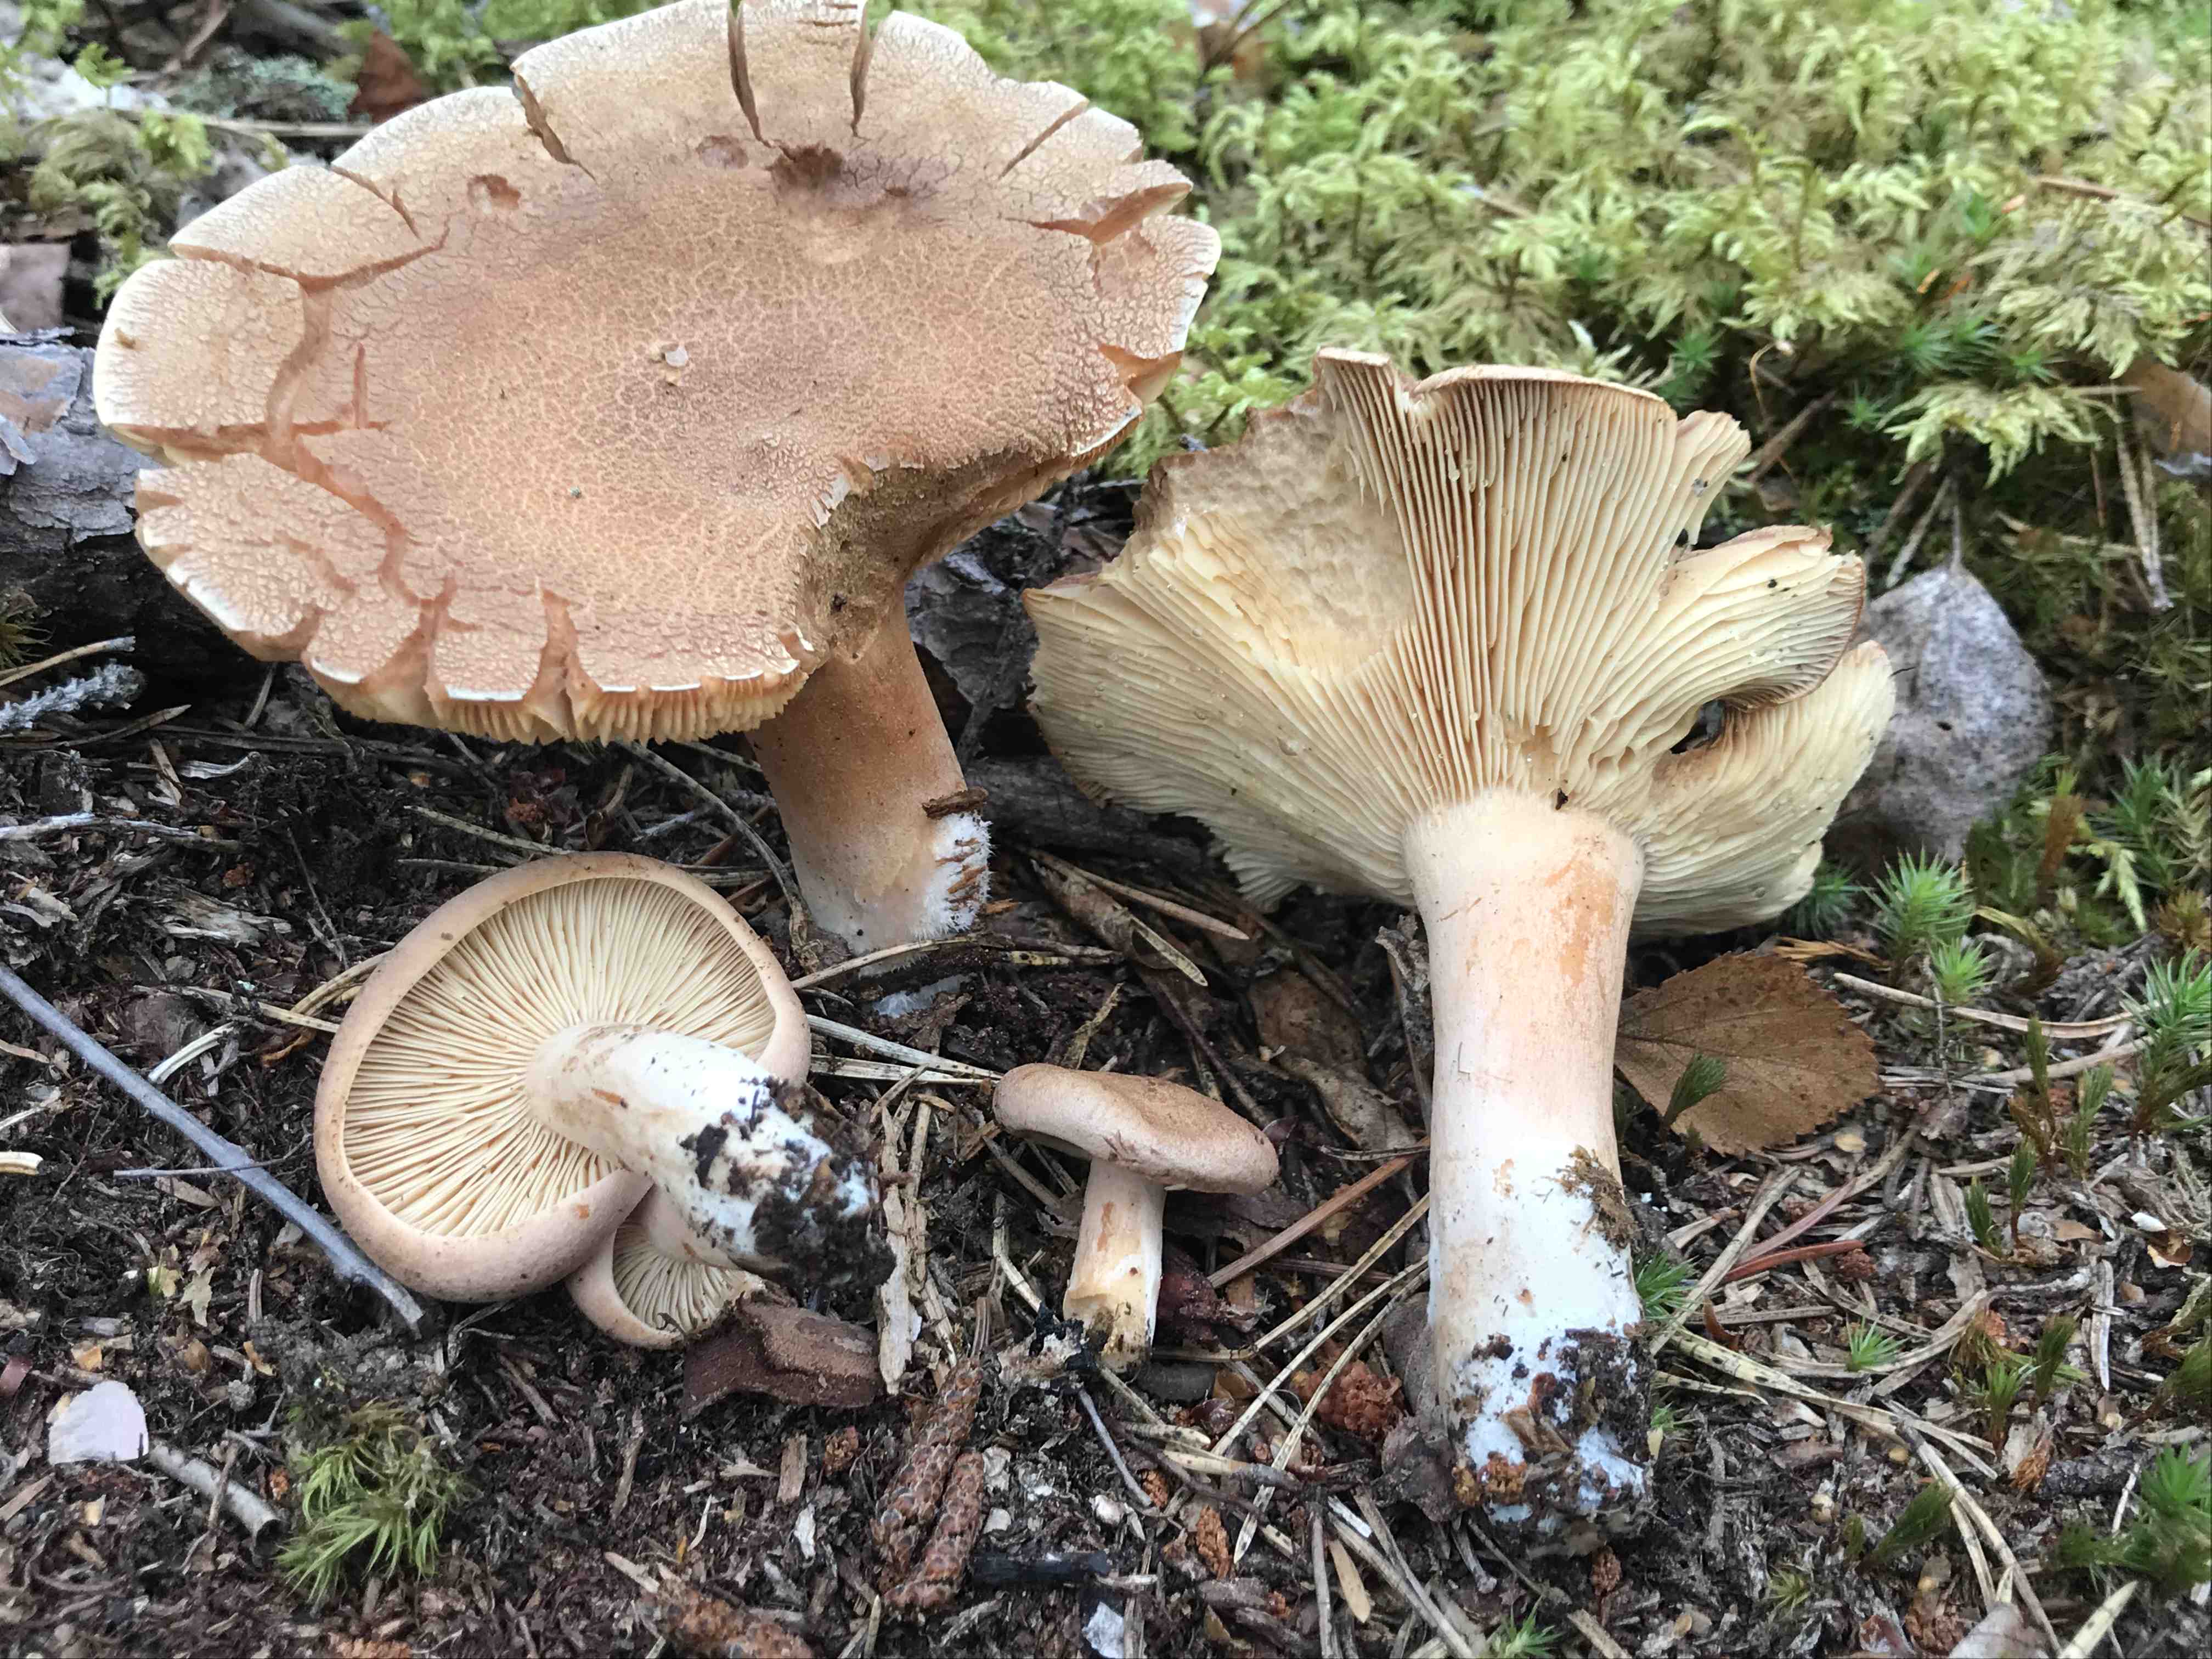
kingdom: Fungi
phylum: Basidiomycota
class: Agaricomycetes
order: Russulales
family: Russulaceae
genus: Lactarius
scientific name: Lactarius helvus
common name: mose-mælkehat
